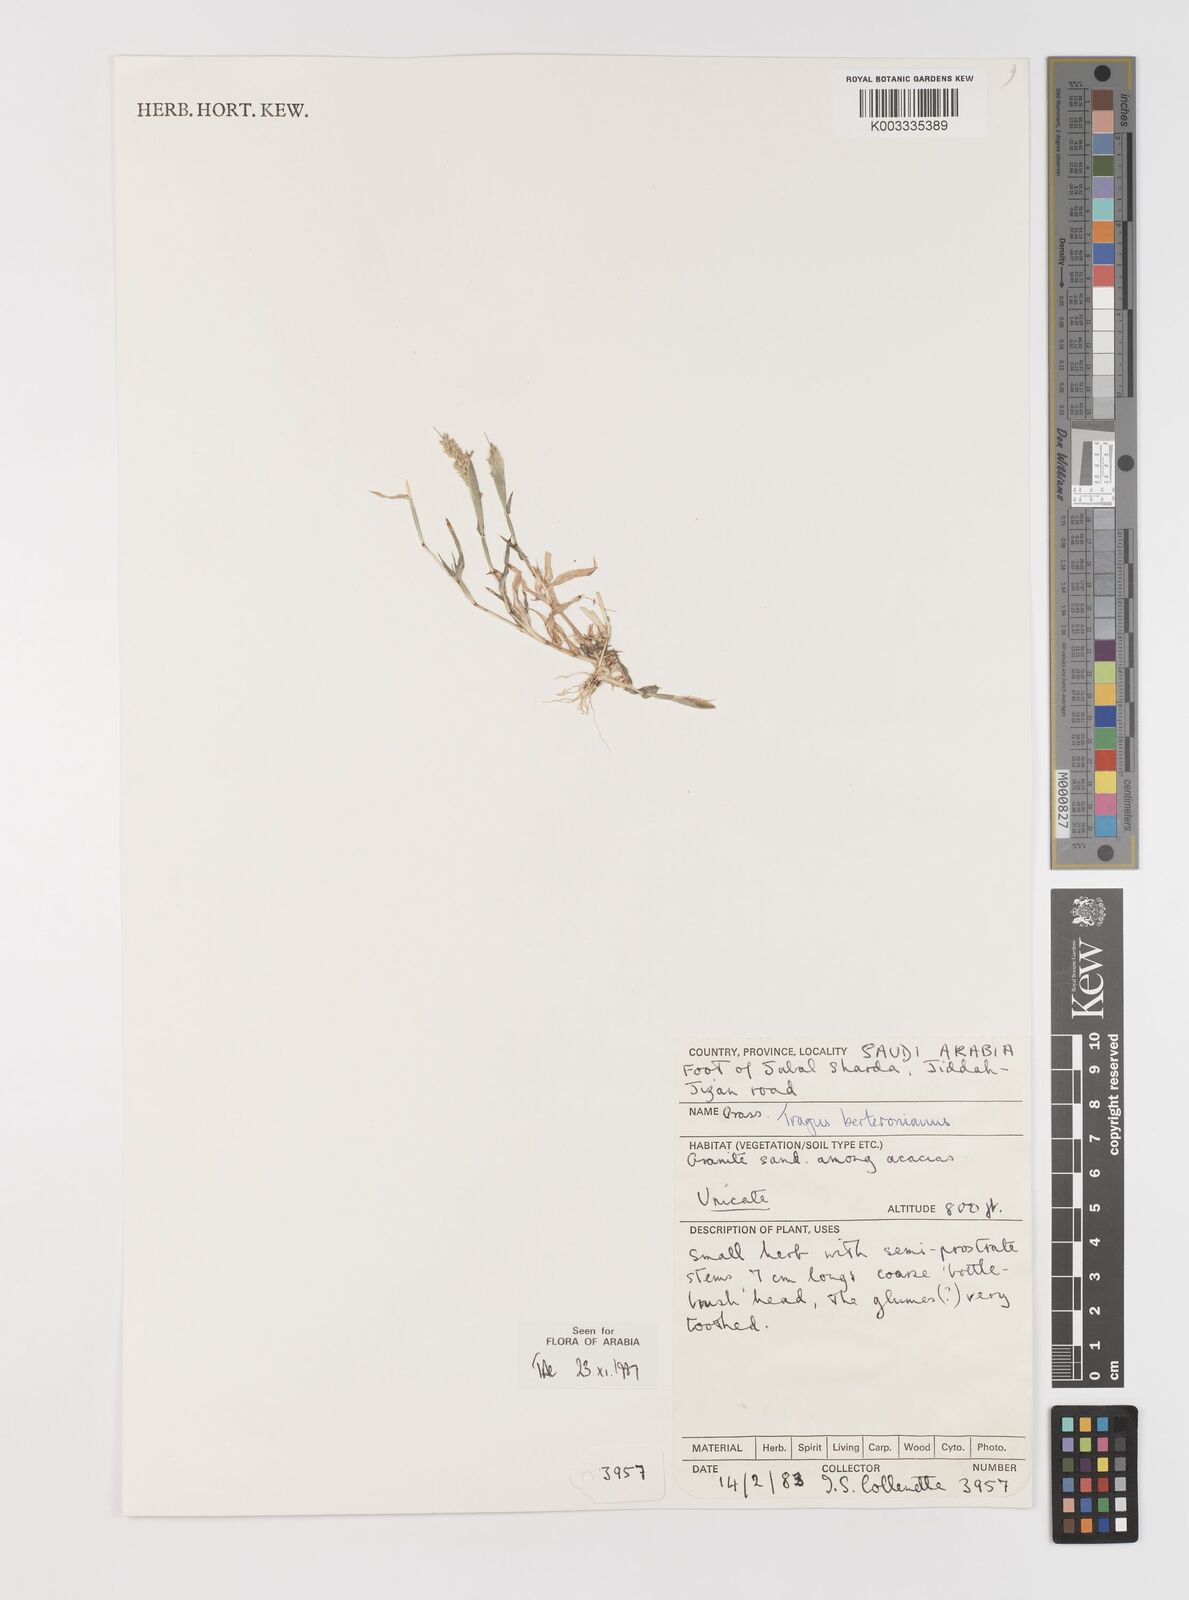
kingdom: Plantae
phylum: Tracheophyta
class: Liliopsida
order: Poales
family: Poaceae
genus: Tragus
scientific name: Tragus berteronianus
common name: African bur-grass
